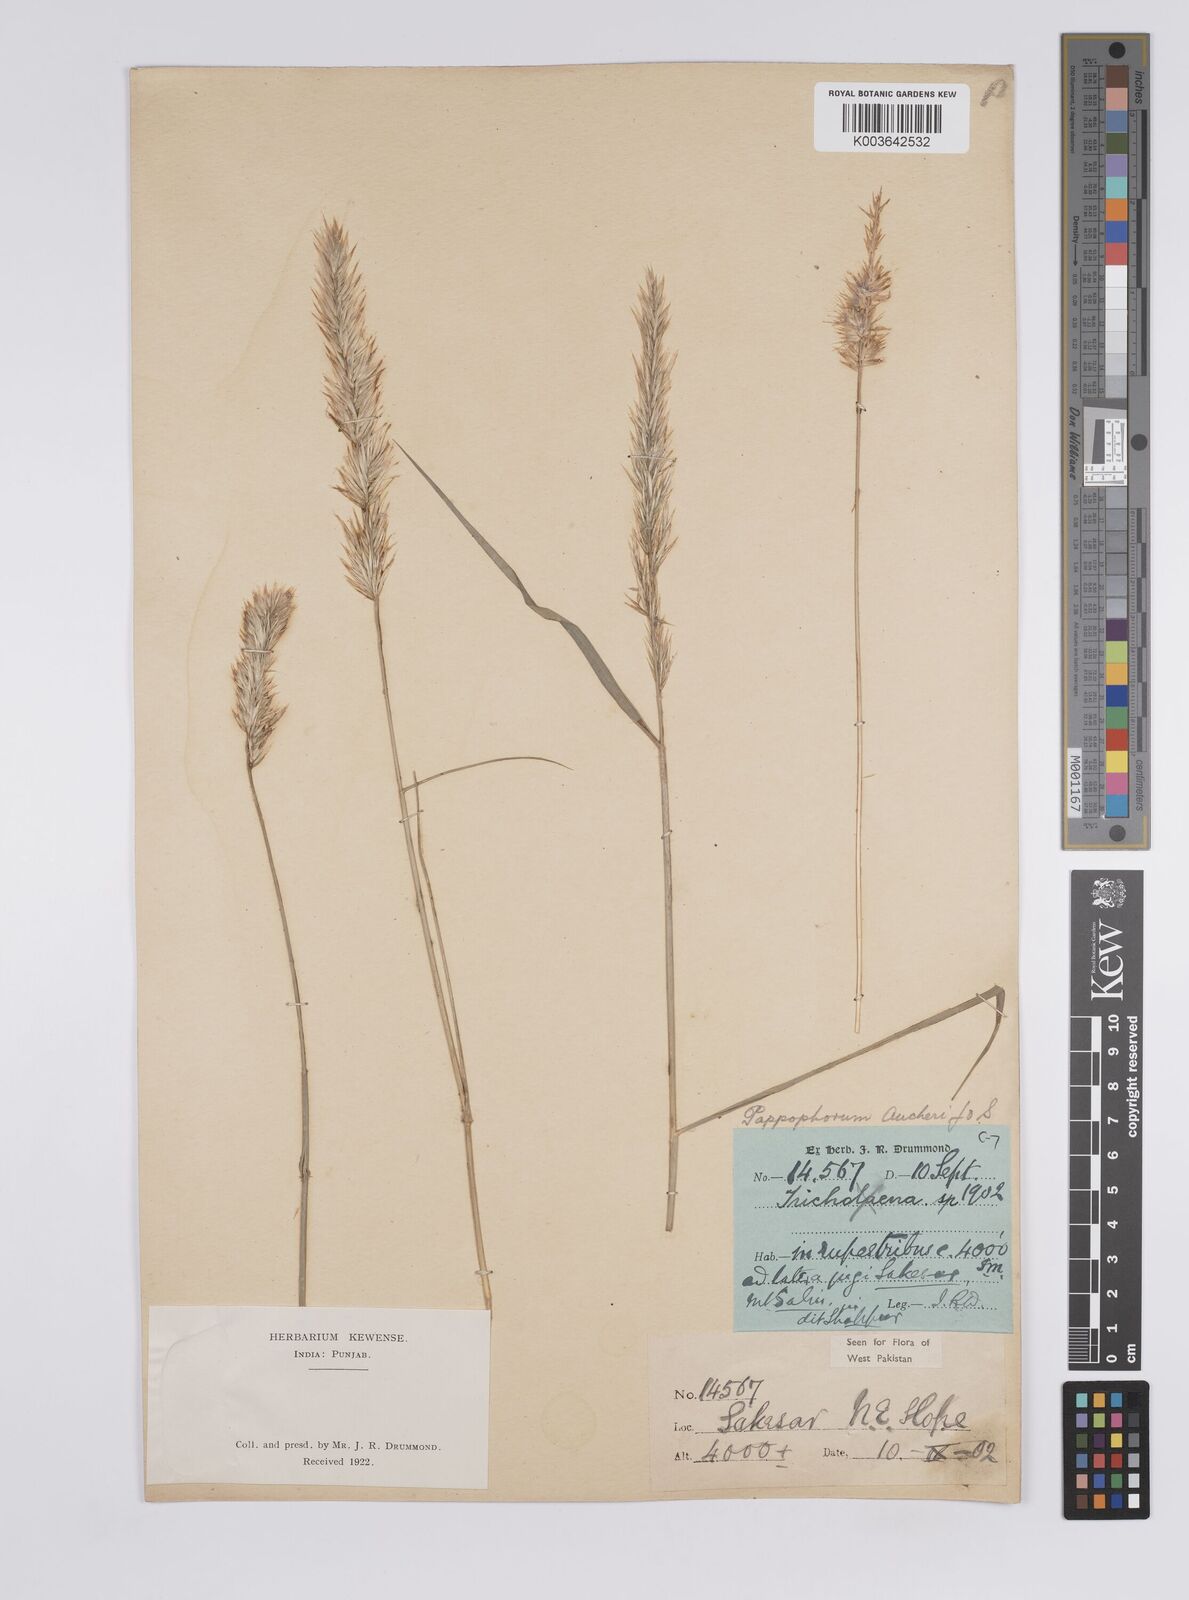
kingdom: Plantae
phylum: Tracheophyta
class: Liliopsida
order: Poales
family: Poaceae
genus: Enneapogon
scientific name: Enneapogon persicus
